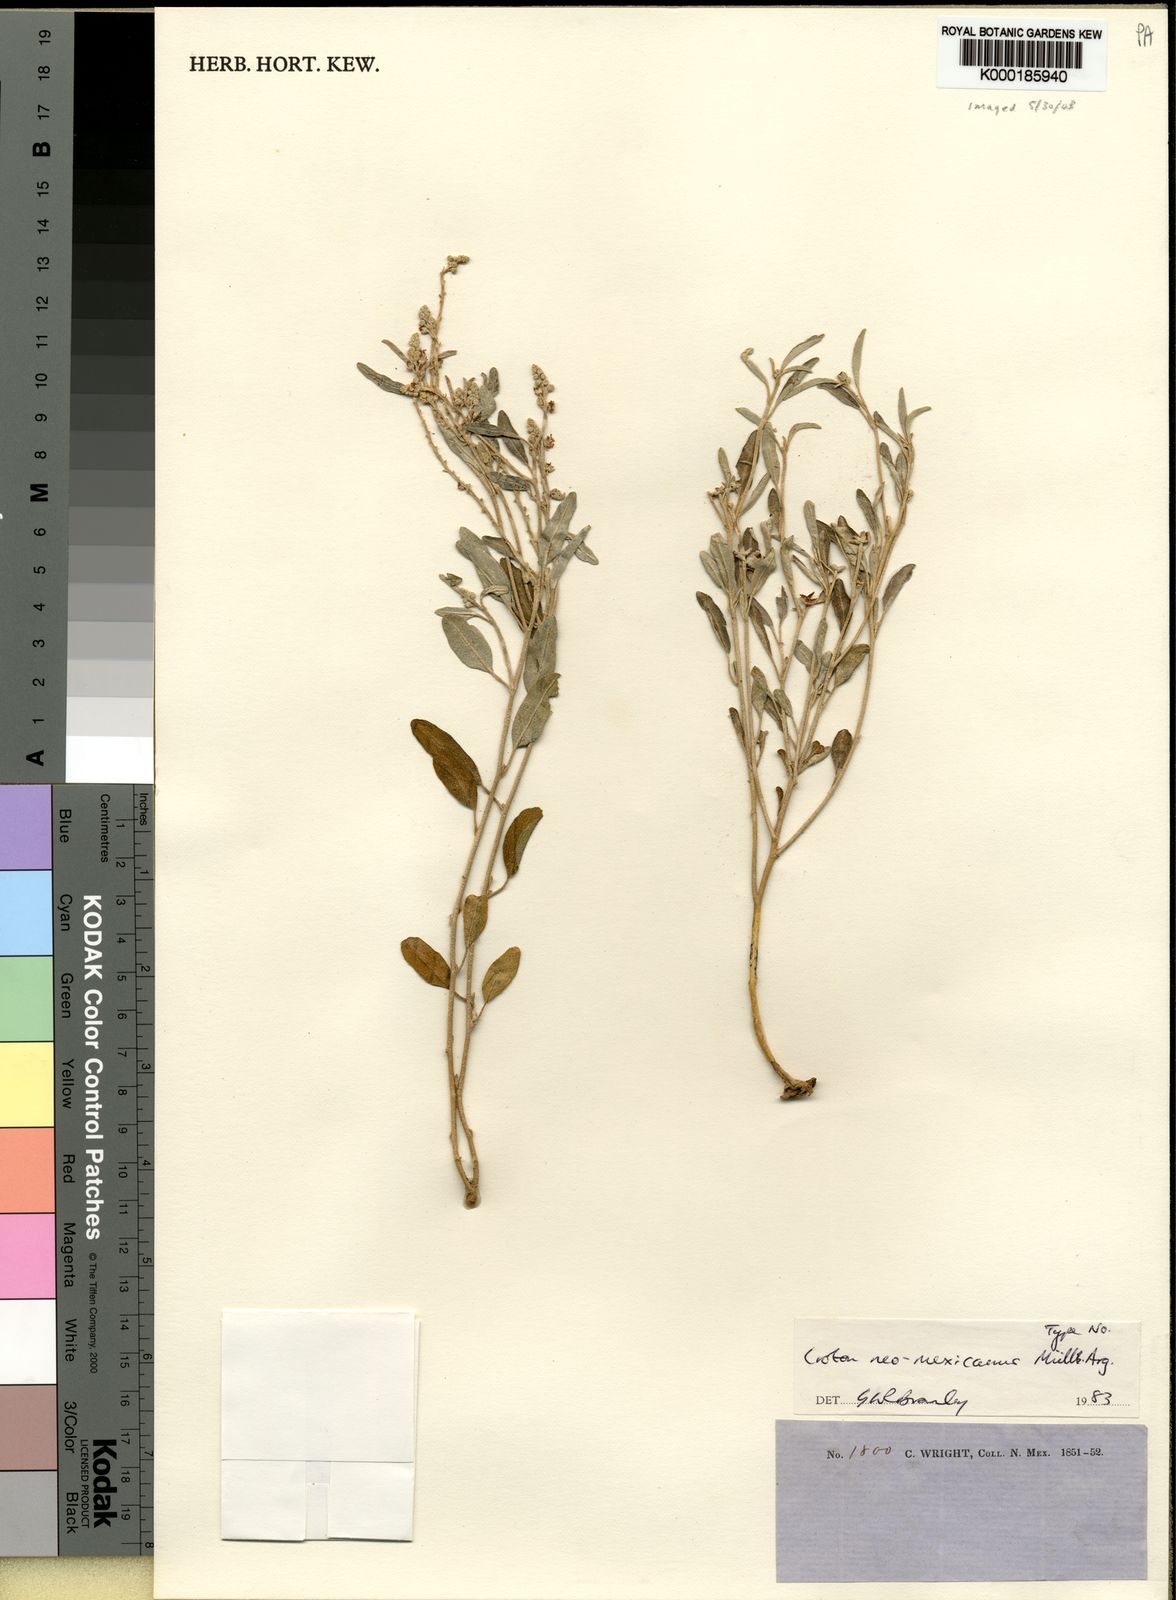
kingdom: Plantae
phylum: Tracheophyta
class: Magnoliopsida
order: Malpighiales
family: Euphorbiaceae
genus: Croton
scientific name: Croton dioicus
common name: Grassland croton
